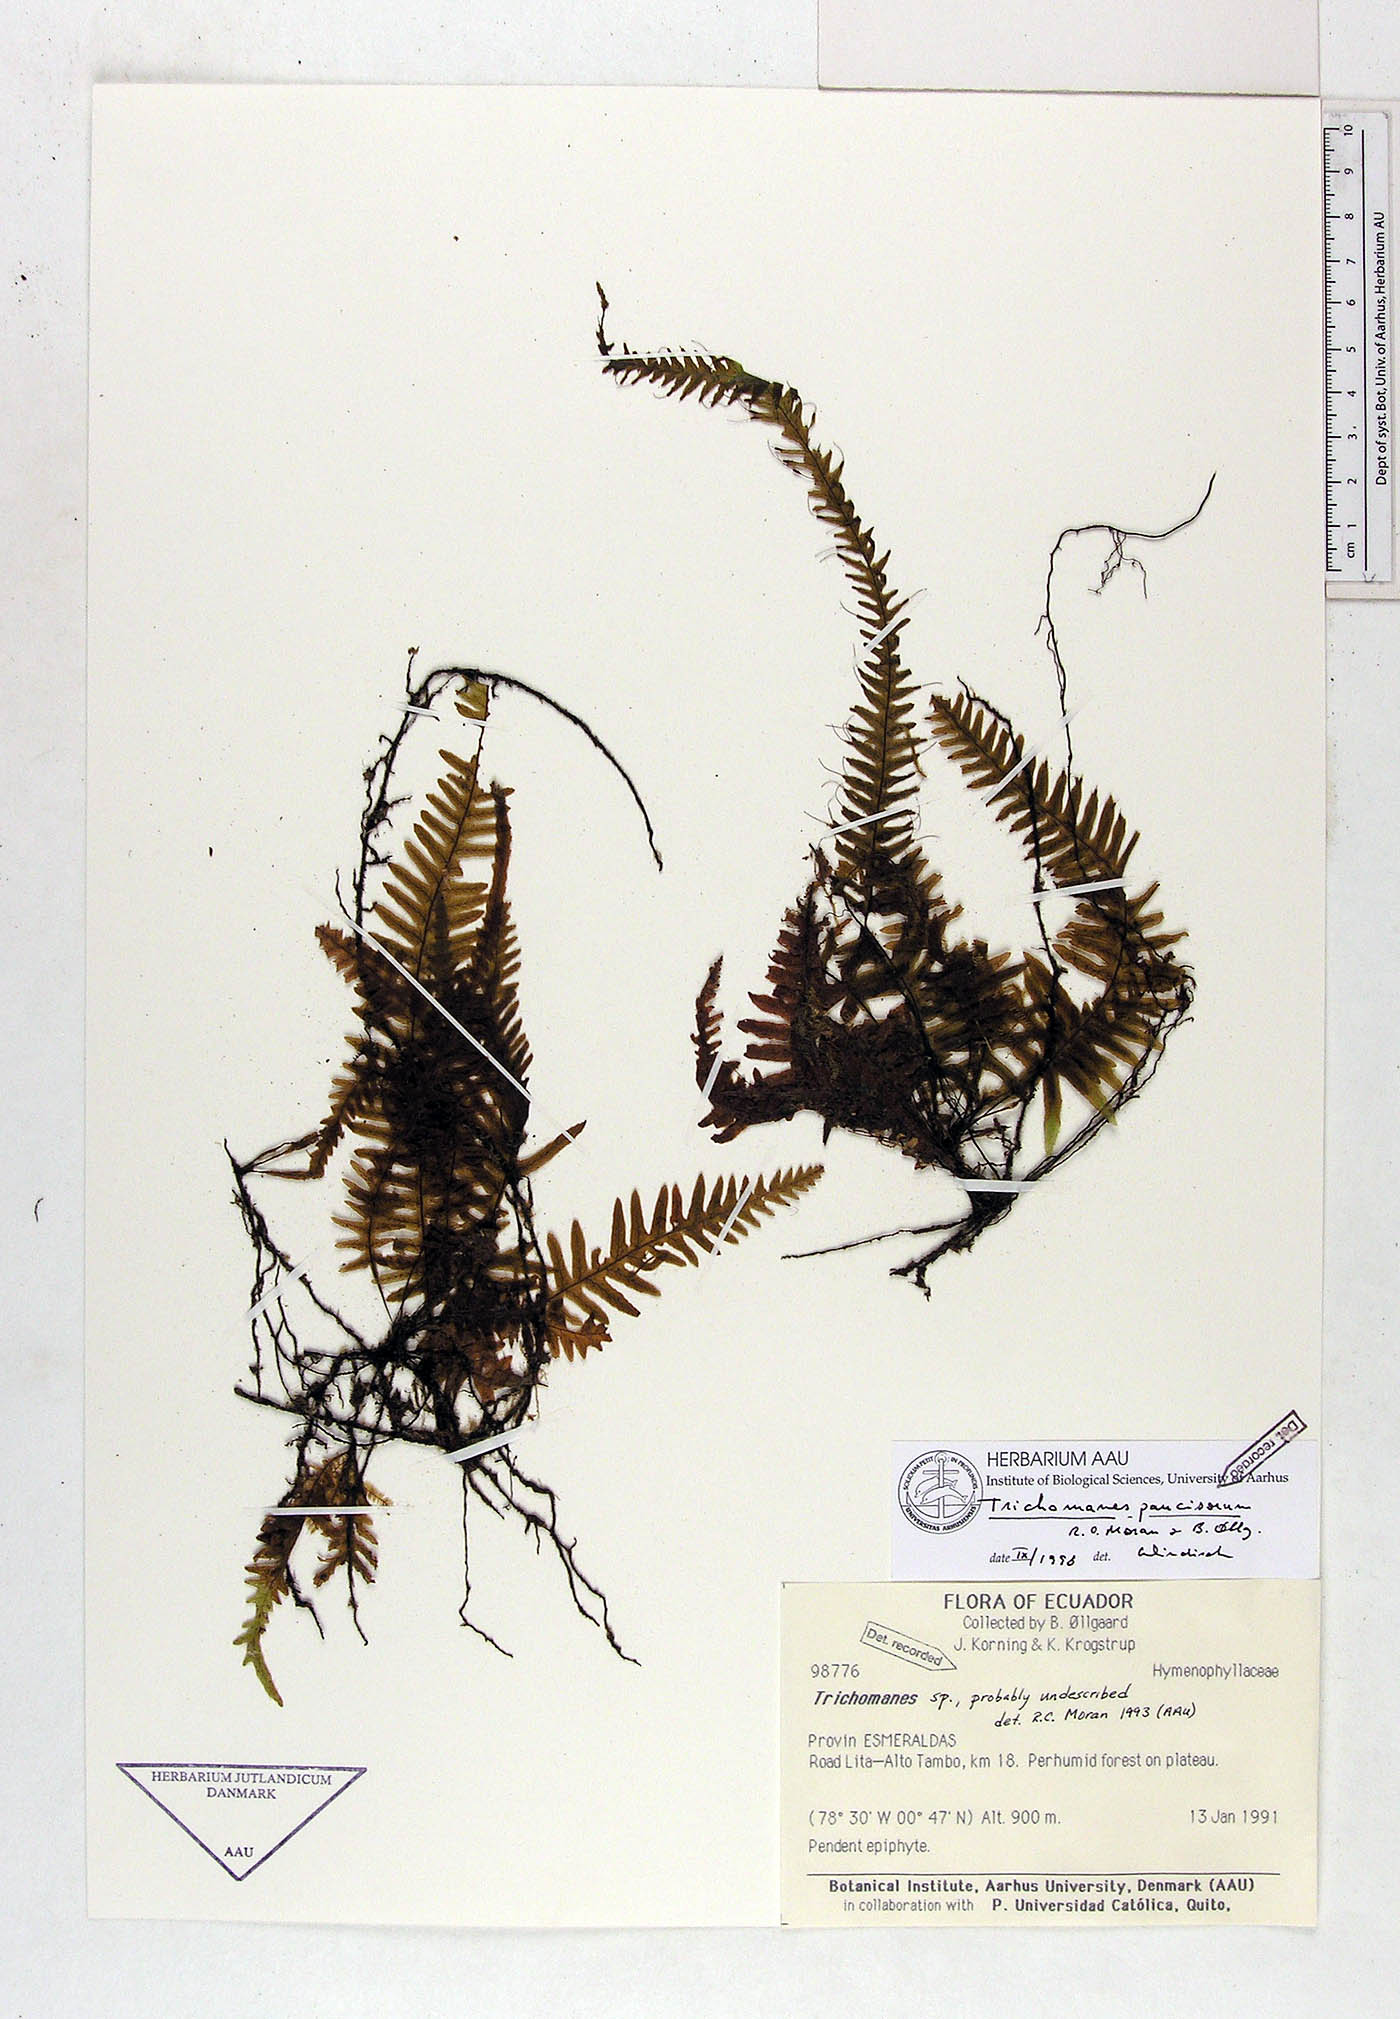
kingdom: Plantae
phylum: Tracheophyta
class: Polypodiopsida
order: Hymenophyllales
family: Hymenophyllaceae
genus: Trichomanes
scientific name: Trichomanes paucisorum
